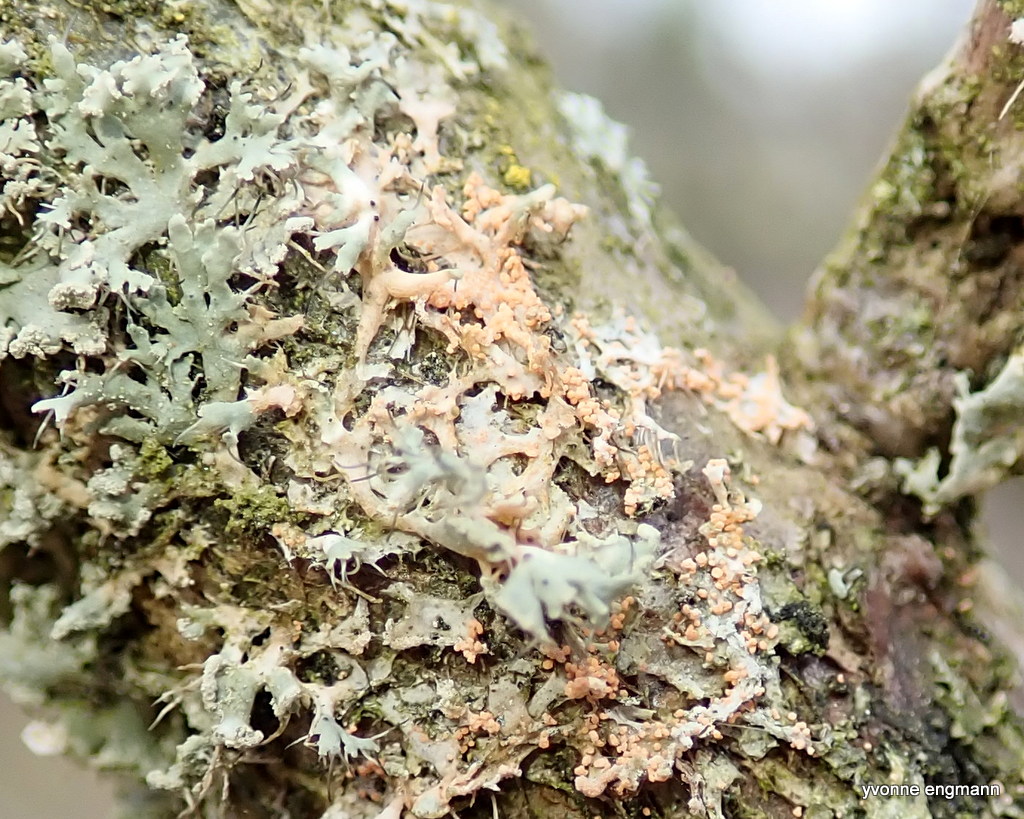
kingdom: Fungi
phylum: Basidiomycota
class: Agaricomycetes
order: Corticiales
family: Corticiaceae
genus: Erythricium
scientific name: Erythricium aurantiacum
